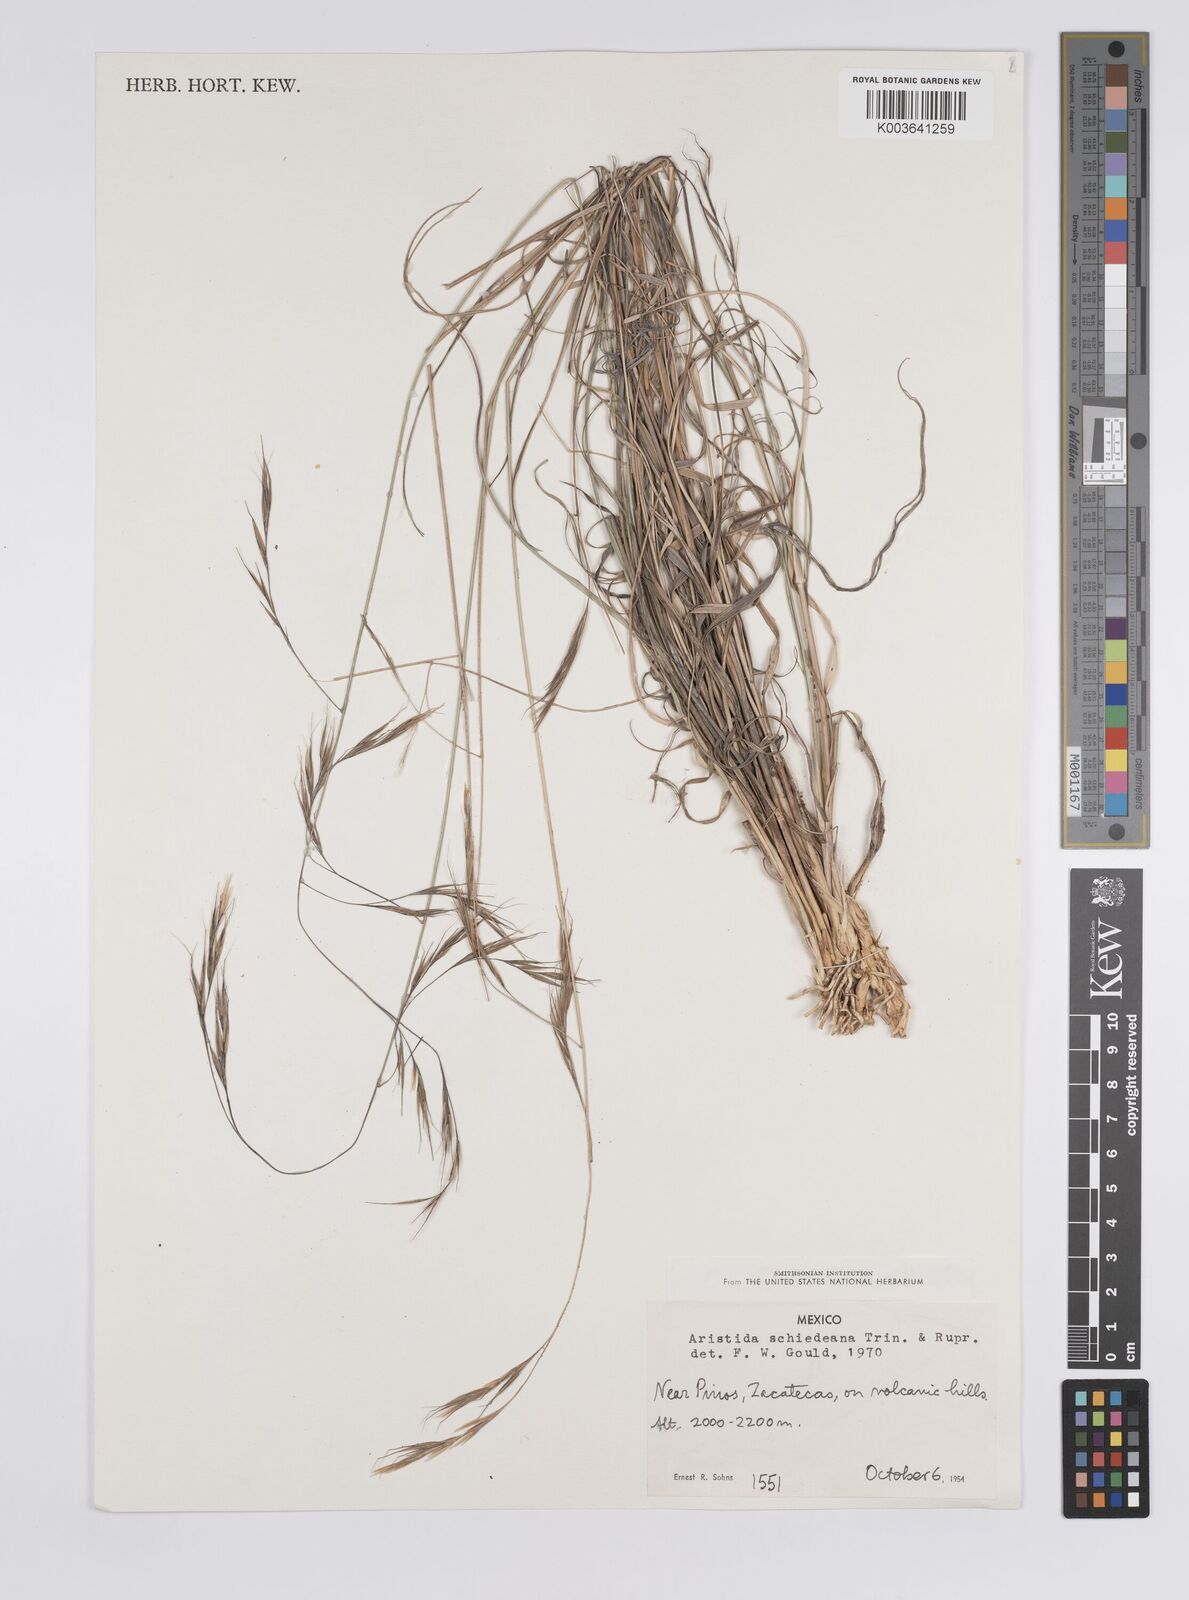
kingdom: Plantae
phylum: Tracheophyta
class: Liliopsida
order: Poales
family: Poaceae
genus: Aristida
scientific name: Aristida schiedeana
